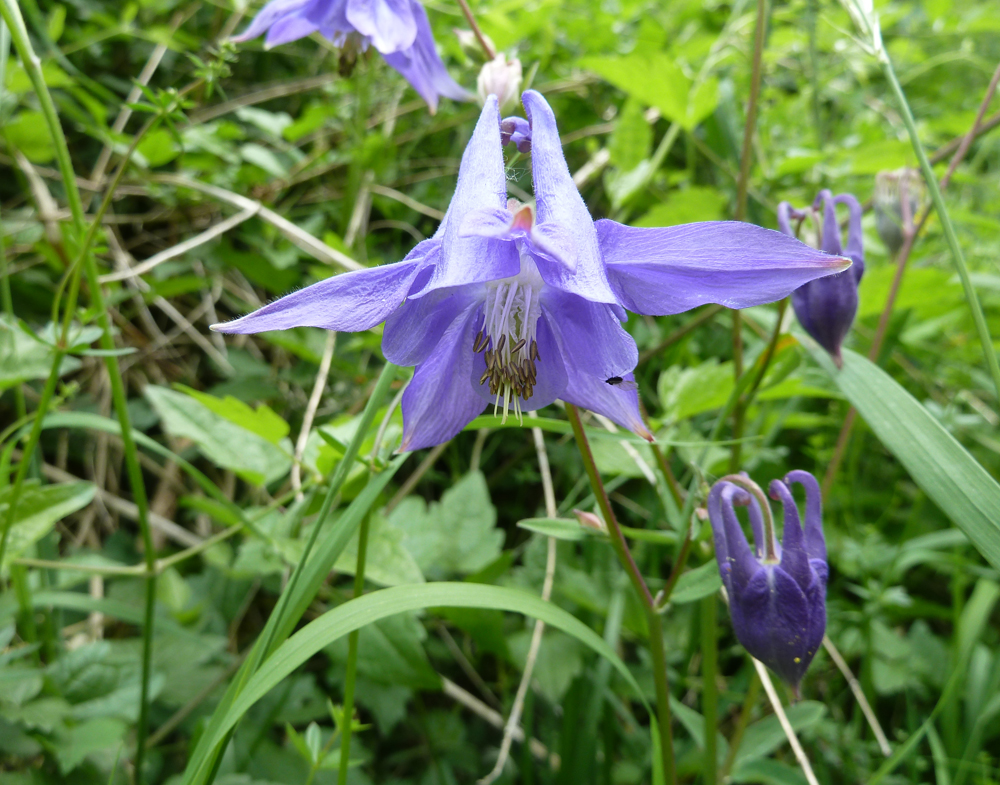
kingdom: Plantae
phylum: Tracheophyta
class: Magnoliopsida
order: Ranunculales
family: Ranunculaceae
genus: Aquilegia
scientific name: Aquilegia vulgaris
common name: Columbine
